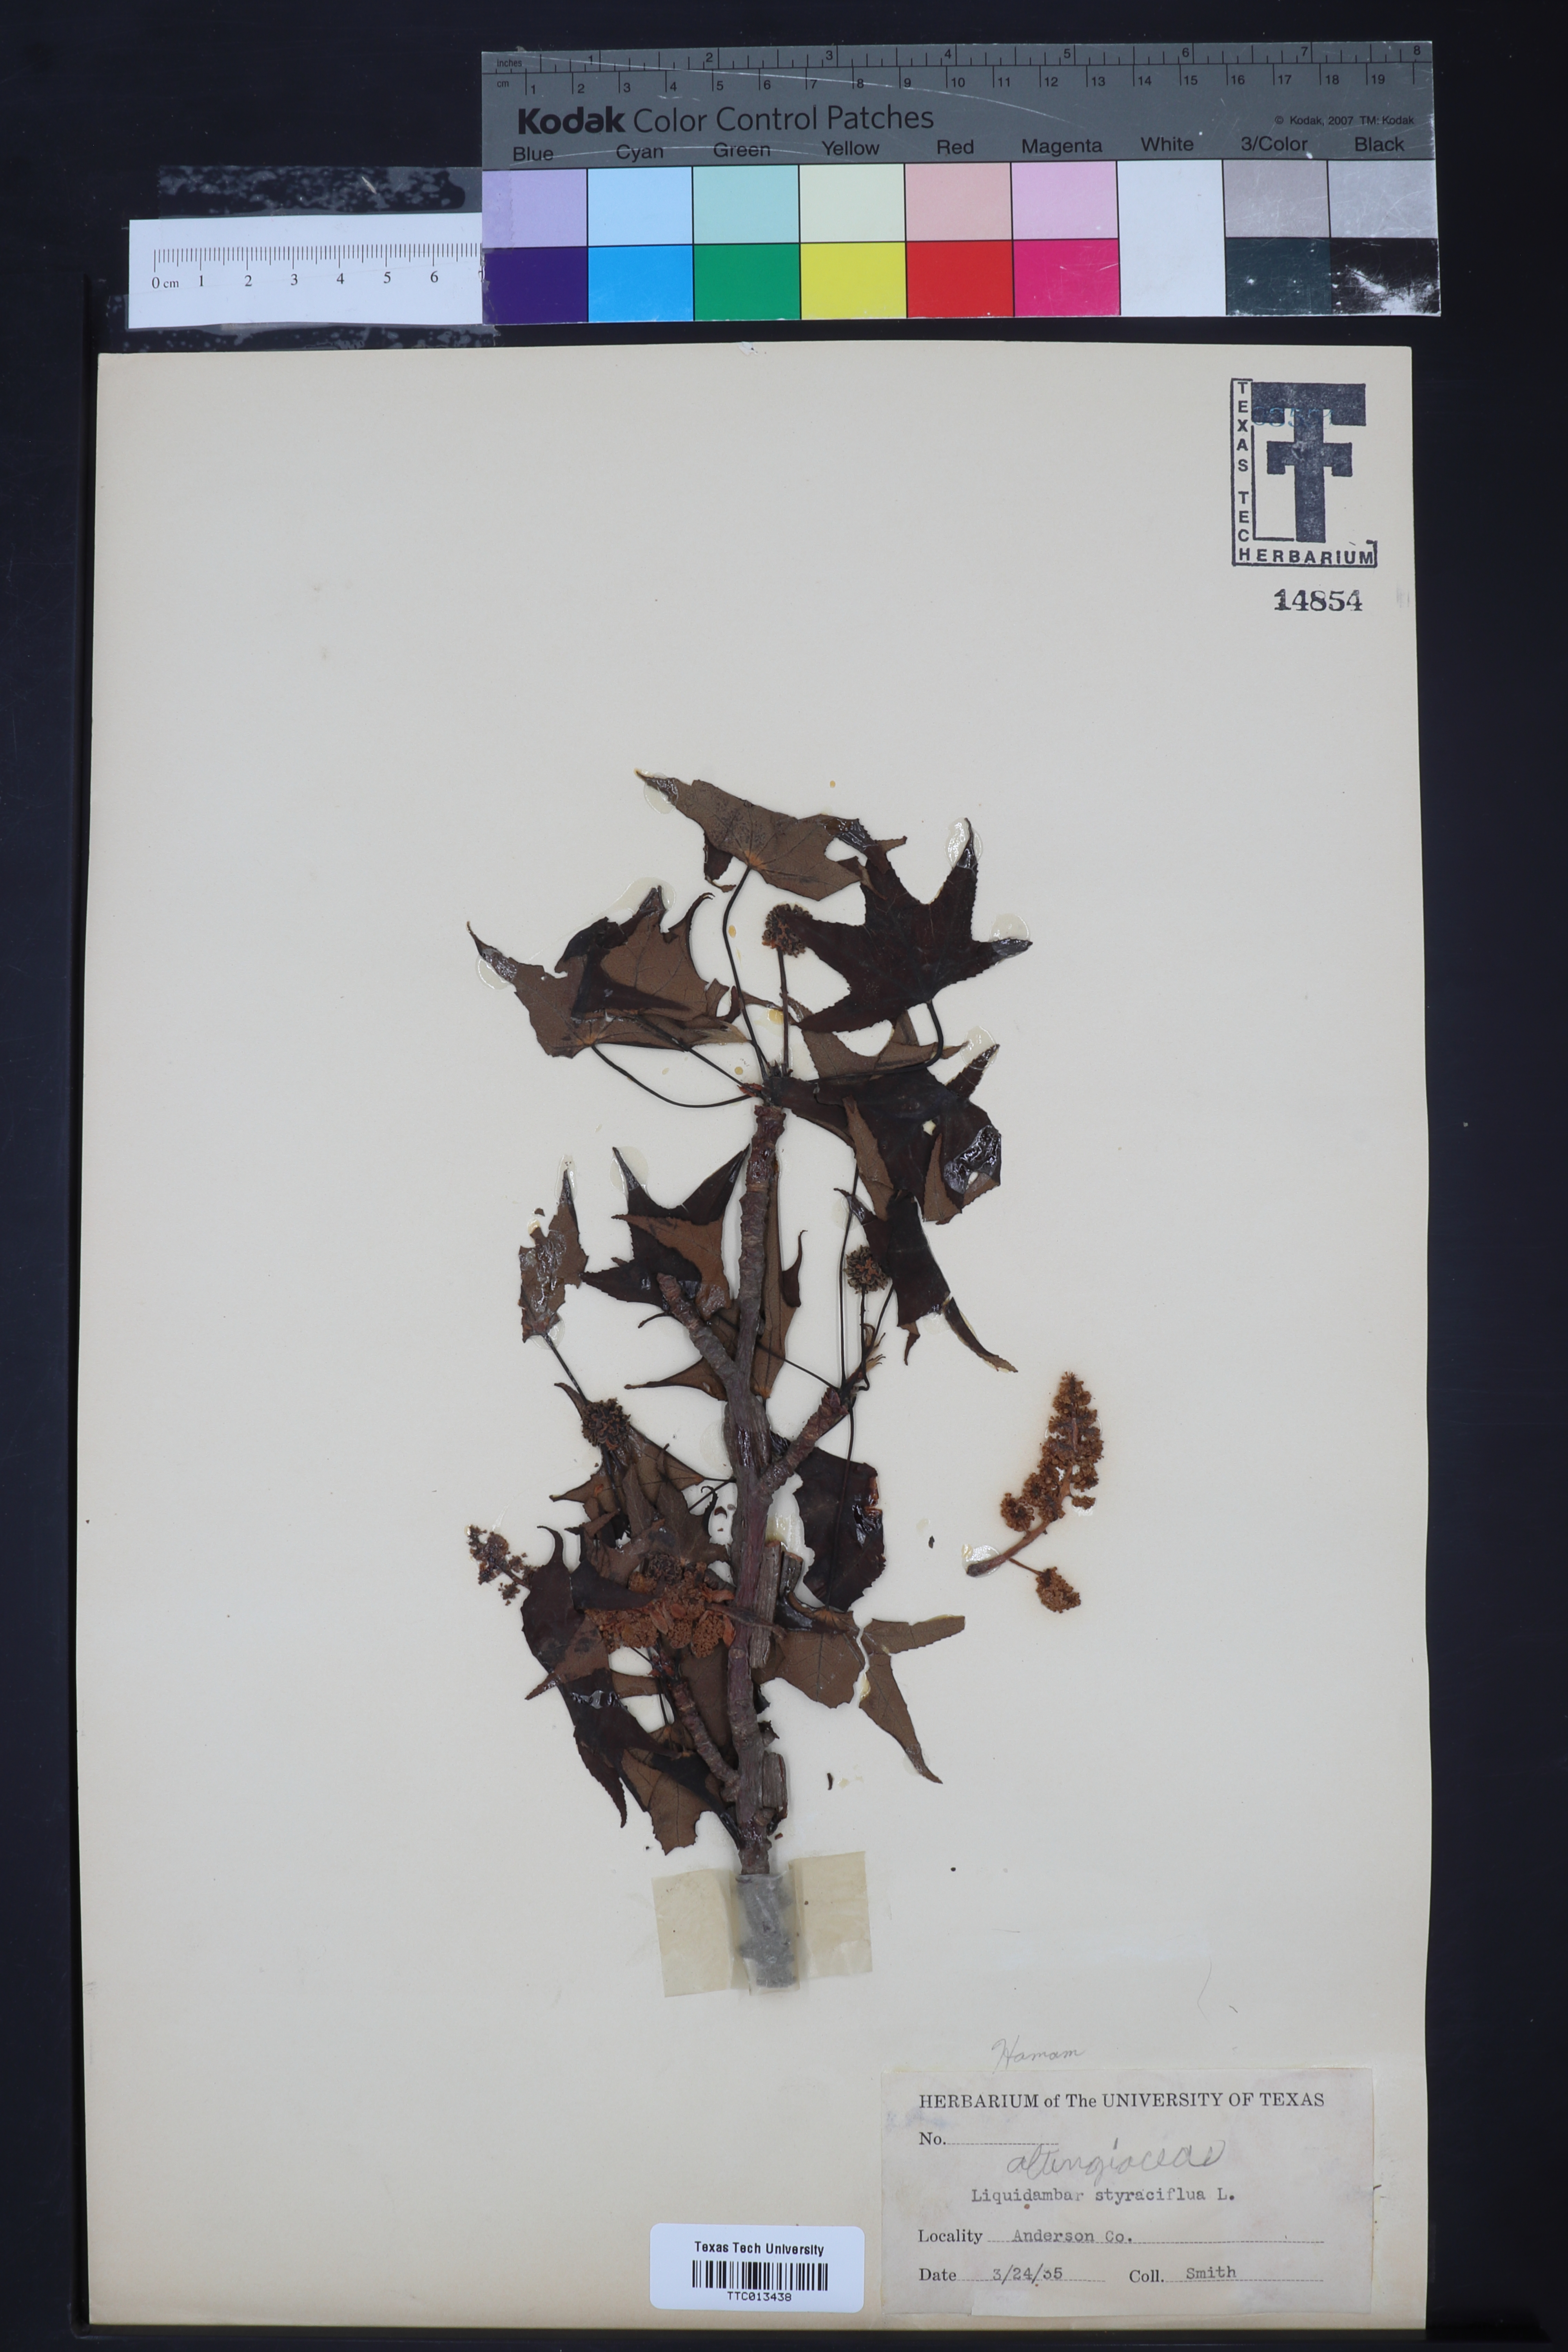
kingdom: Plantae
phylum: Tracheophyta
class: Magnoliopsida
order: Saxifragales
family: Altingiaceae
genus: Liquidambar
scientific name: Liquidambar styraciflua
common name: Sweet gum
